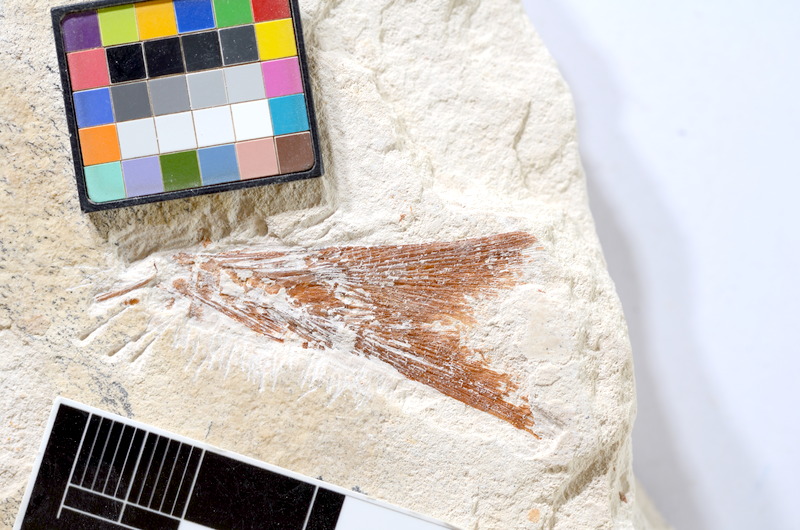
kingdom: Animalia
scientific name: Animalia
